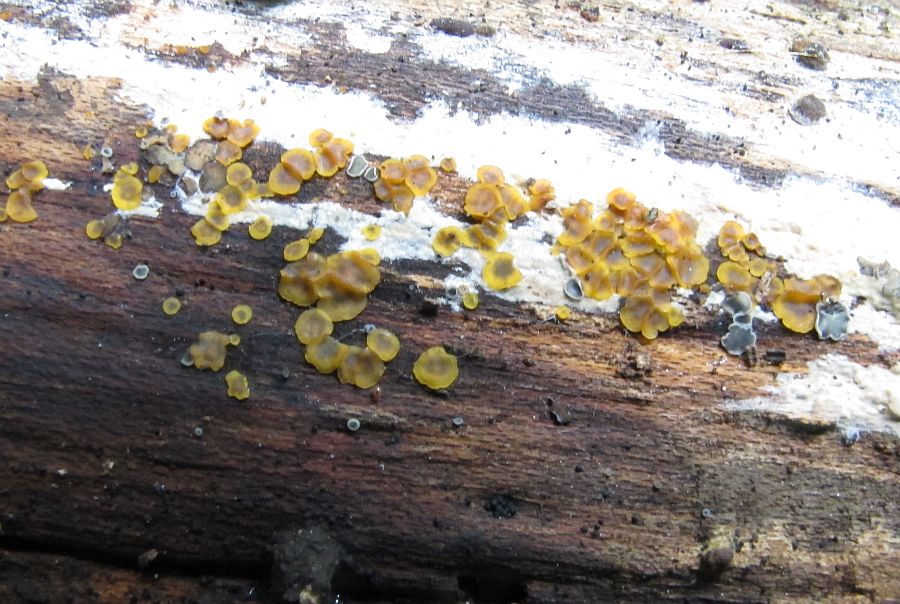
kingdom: Fungi
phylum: Ascomycota
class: Orbiliomycetes
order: Orbiliales
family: Orbiliaceae
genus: Orbilia
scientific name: Orbilia xanthostigma
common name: krumsporet voksskive
